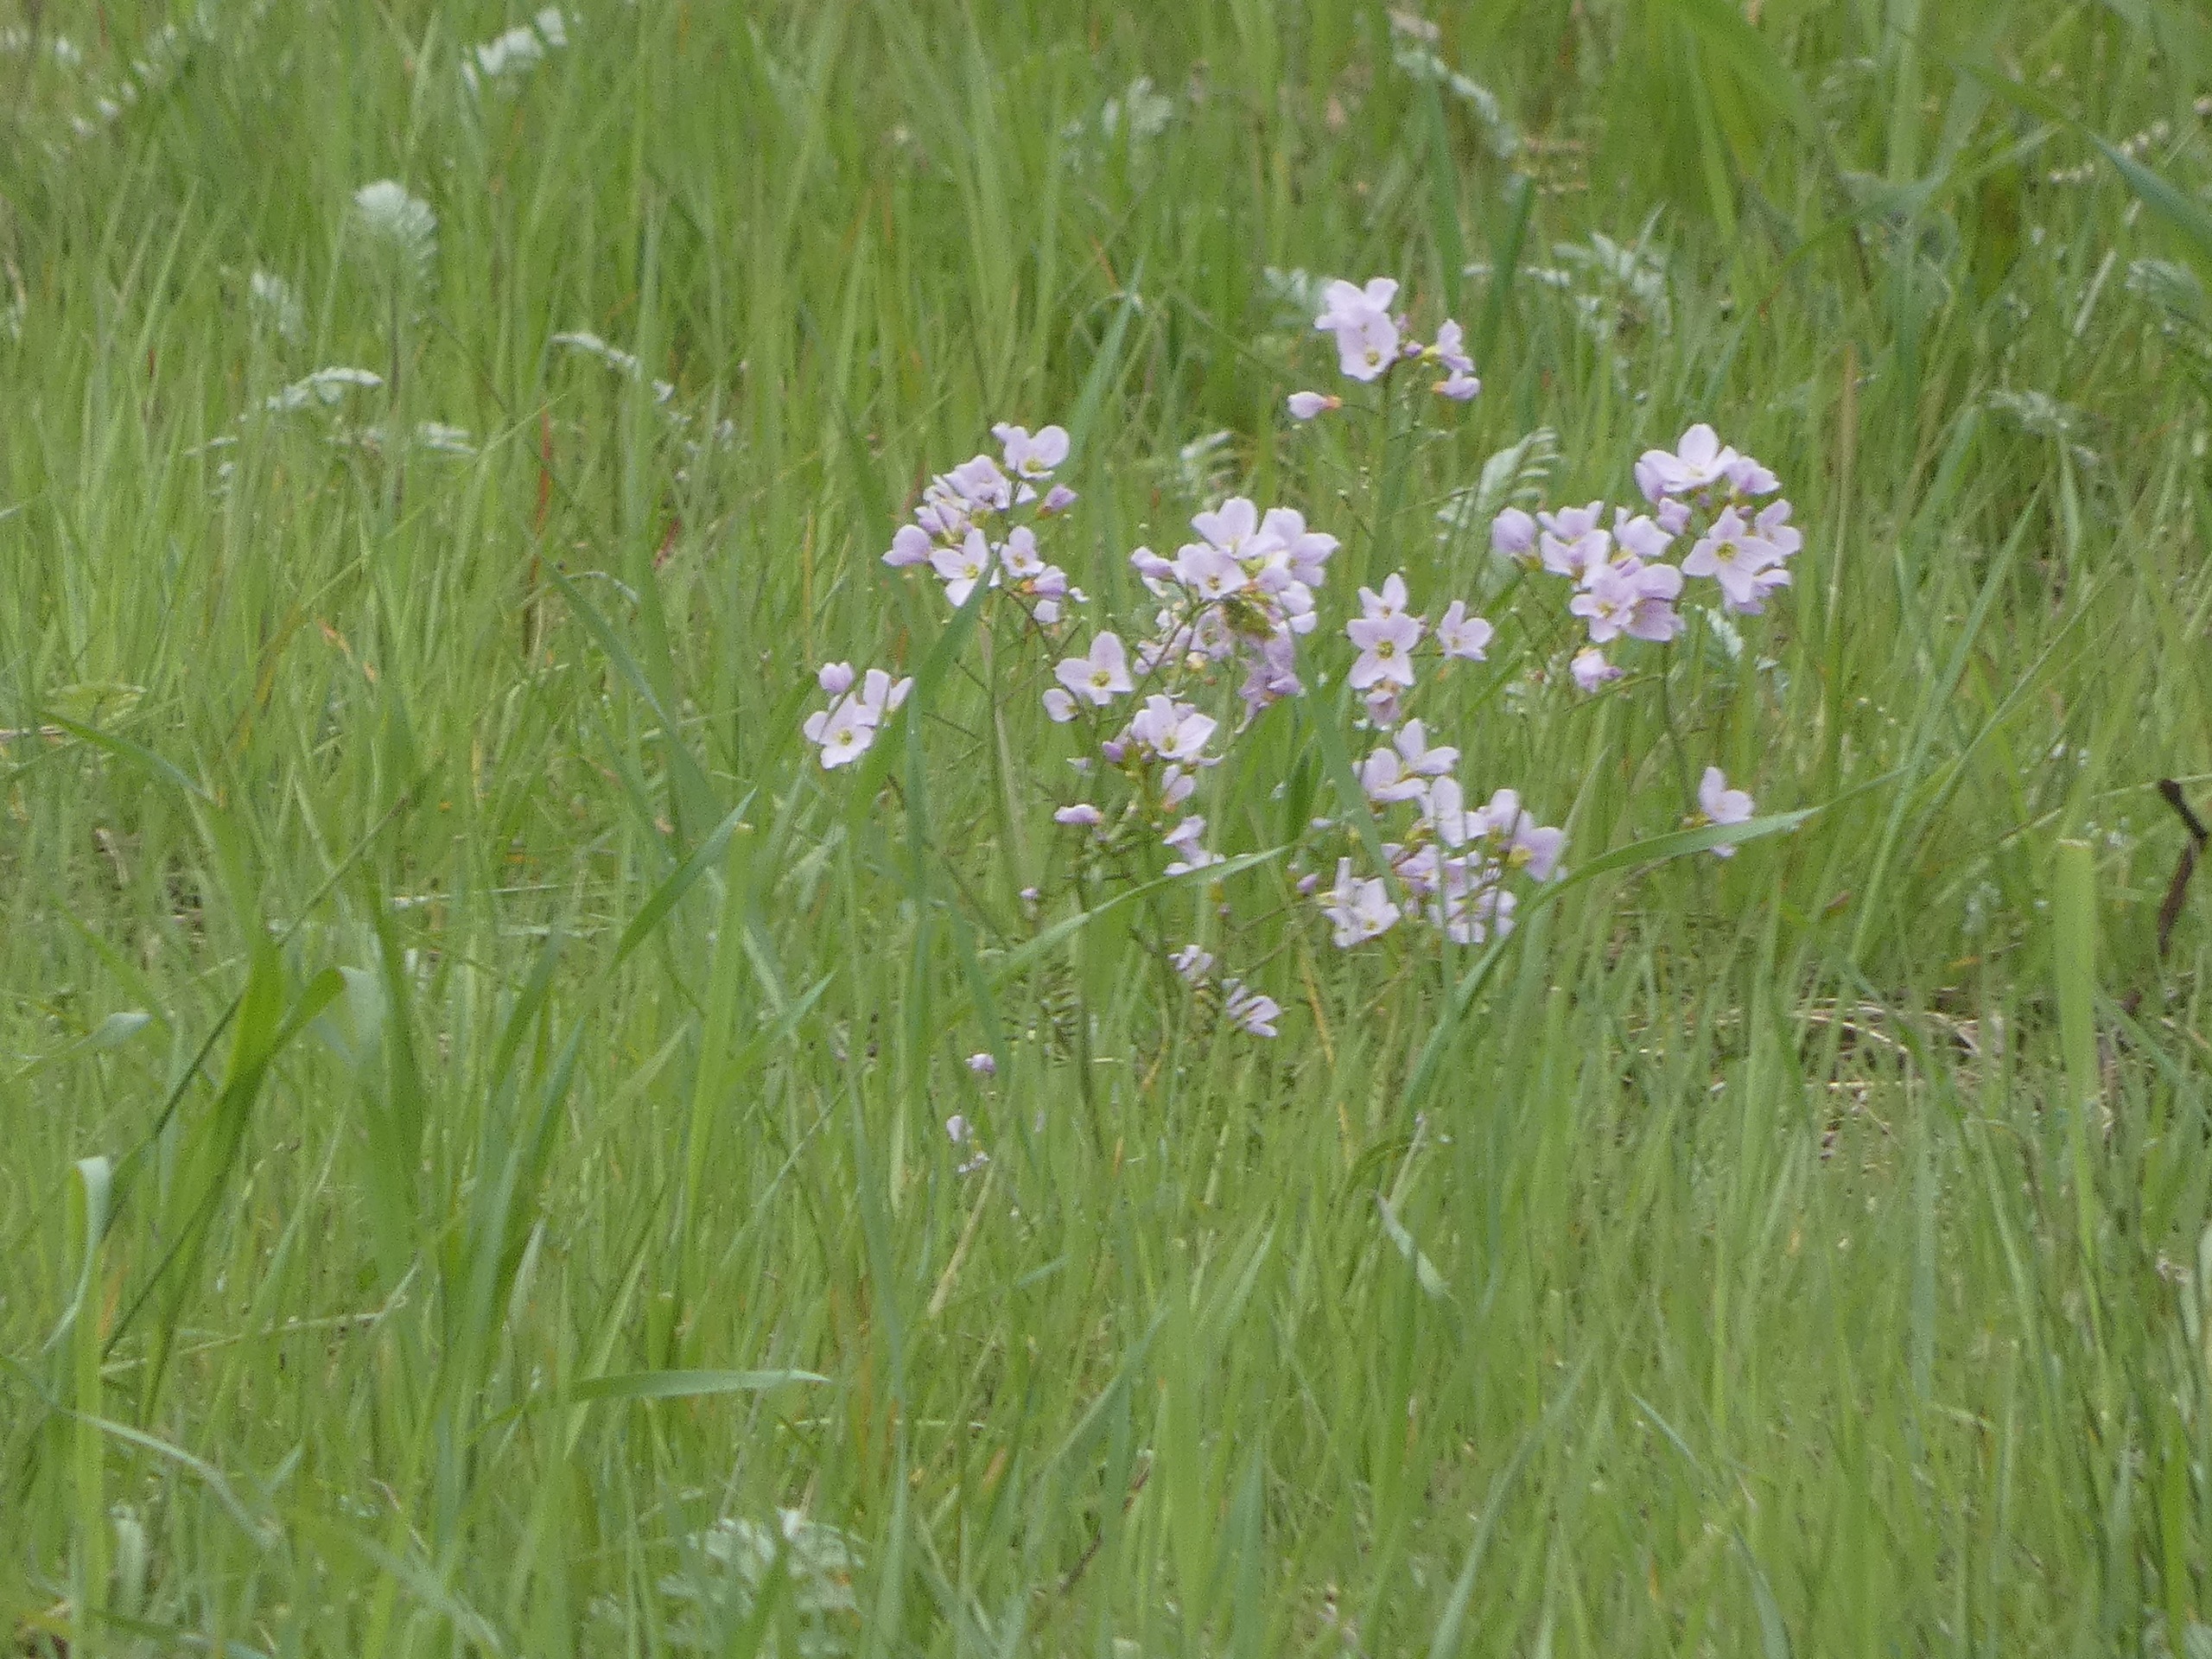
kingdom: Plantae
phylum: Tracheophyta
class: Magnoliopsida
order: Brassicales
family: Brassicaceae
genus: Cardamine
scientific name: Cardamine pratensis
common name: Engkarse
